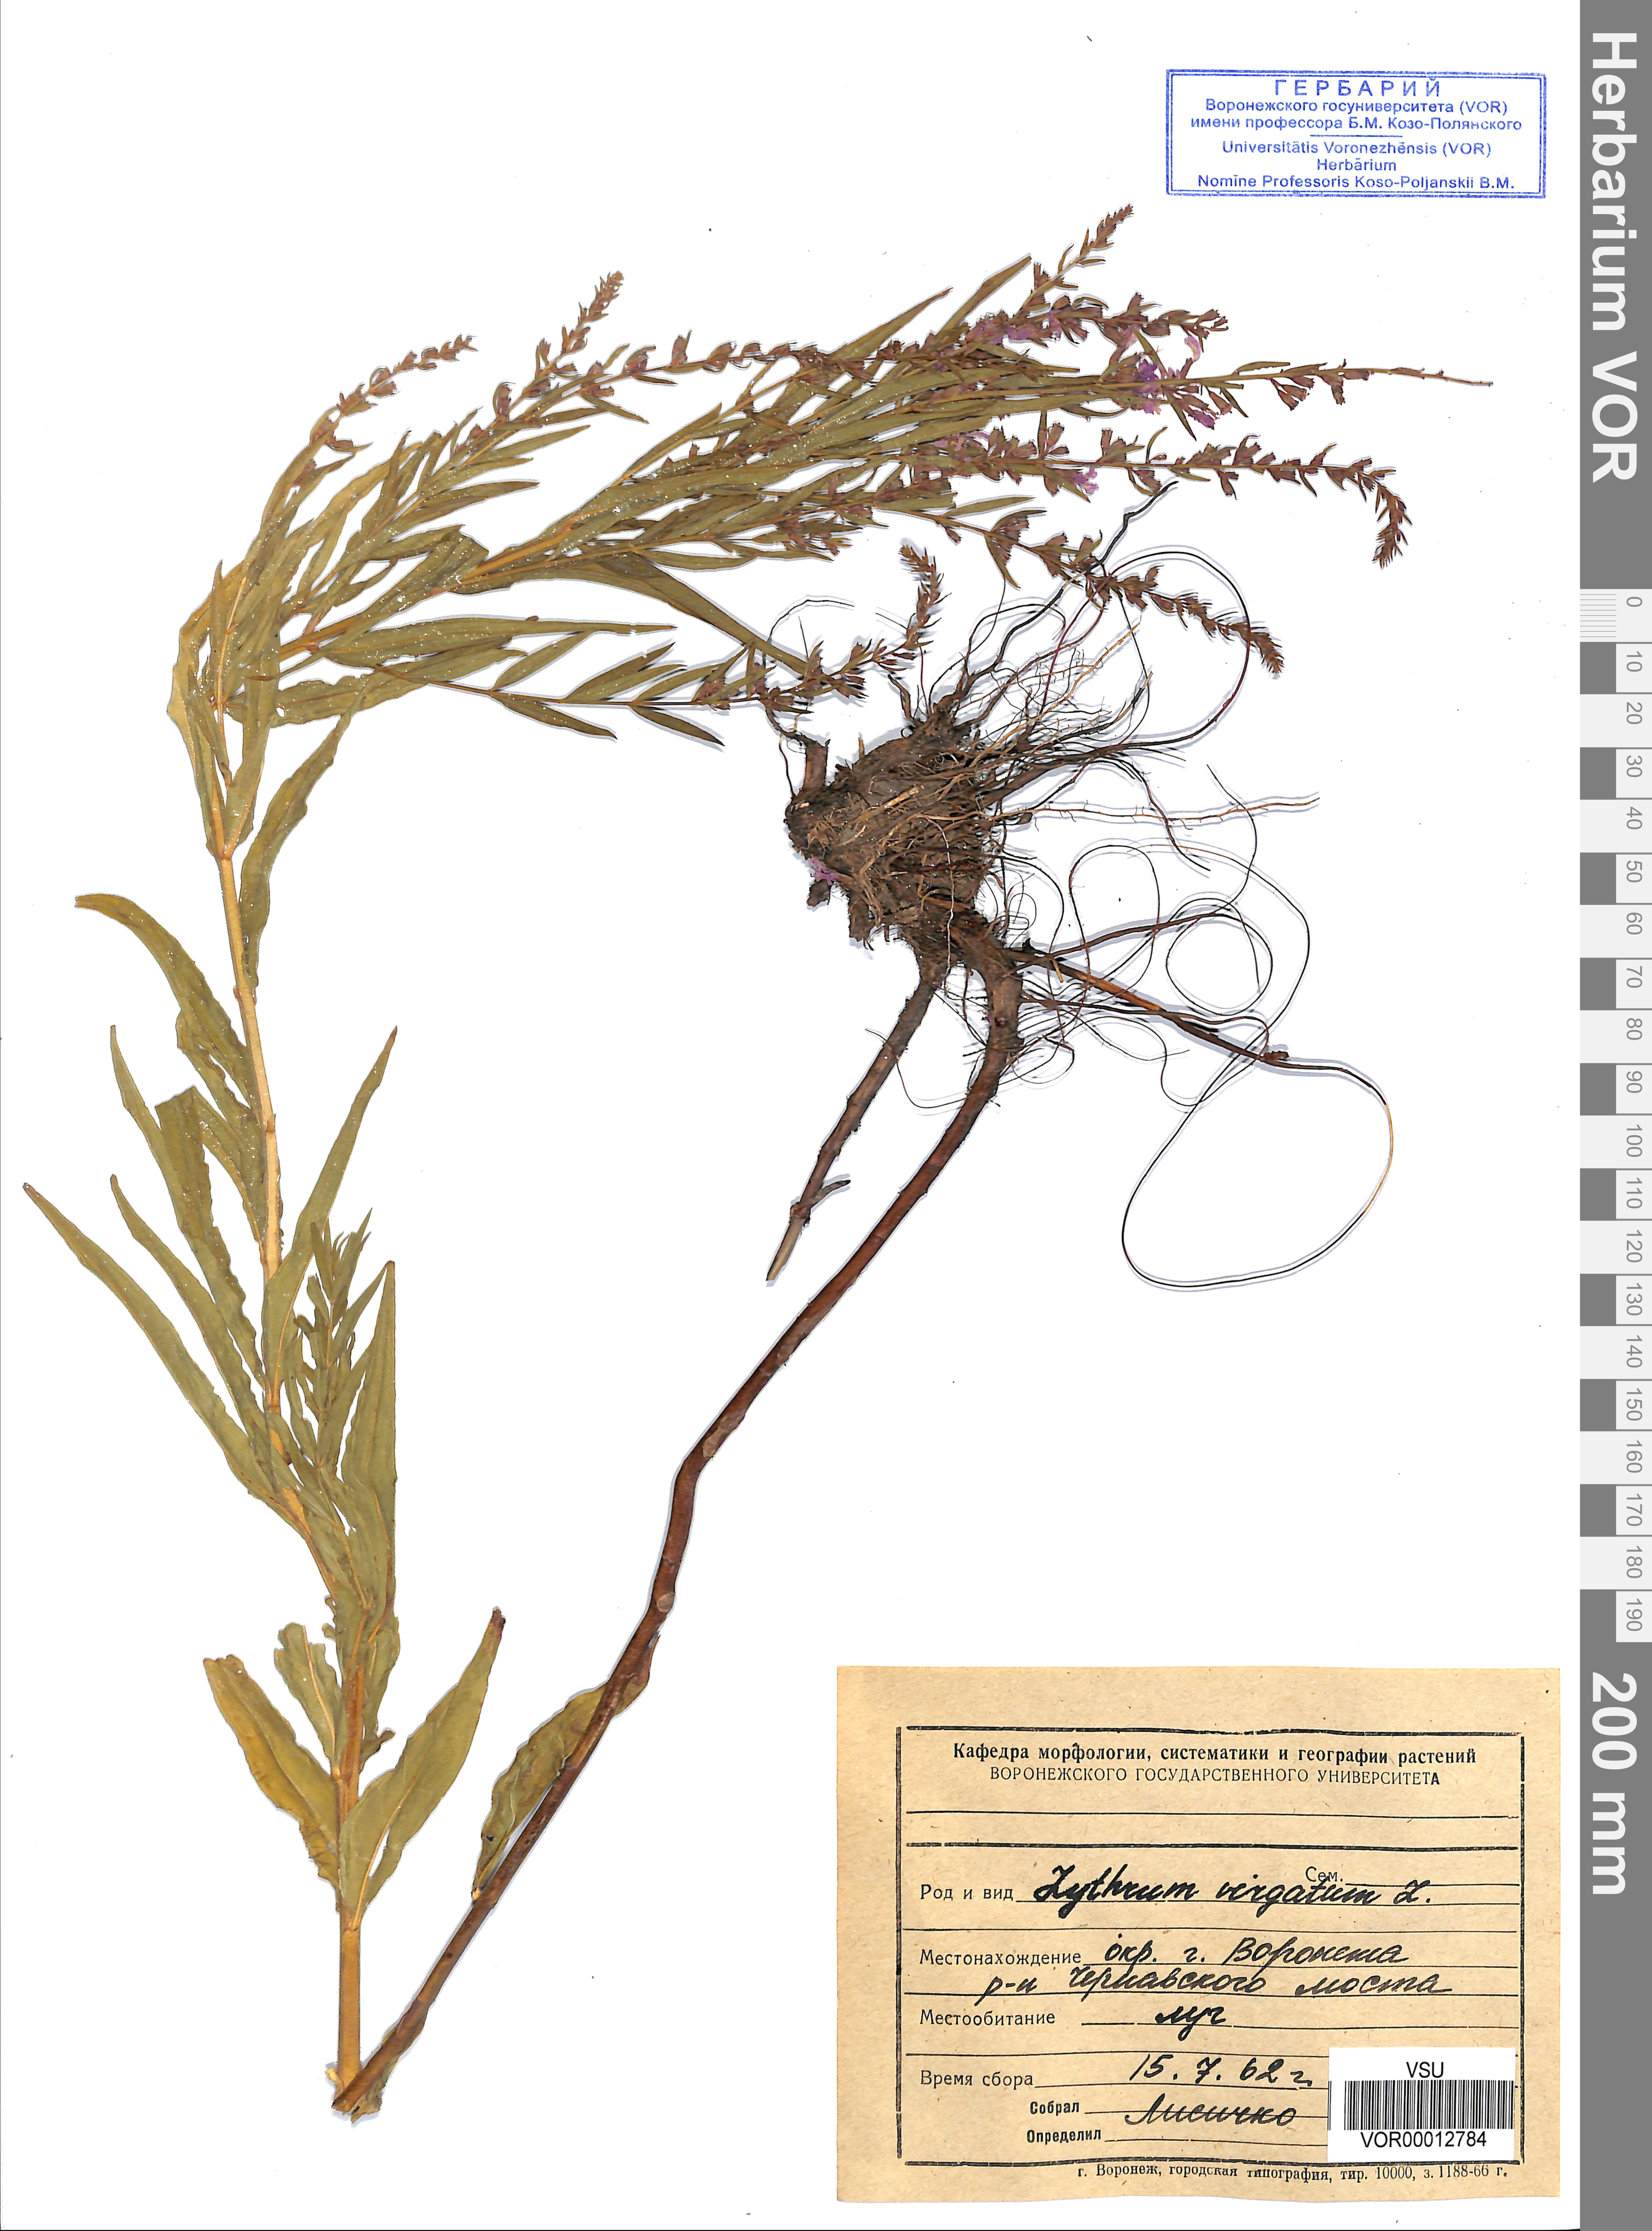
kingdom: Plantae
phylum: Tracheophyta
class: Magnoliopsida
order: Myrtales
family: Lythraceae
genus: Lythrum
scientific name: Lythrum virgatum
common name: European wand loosestrife
